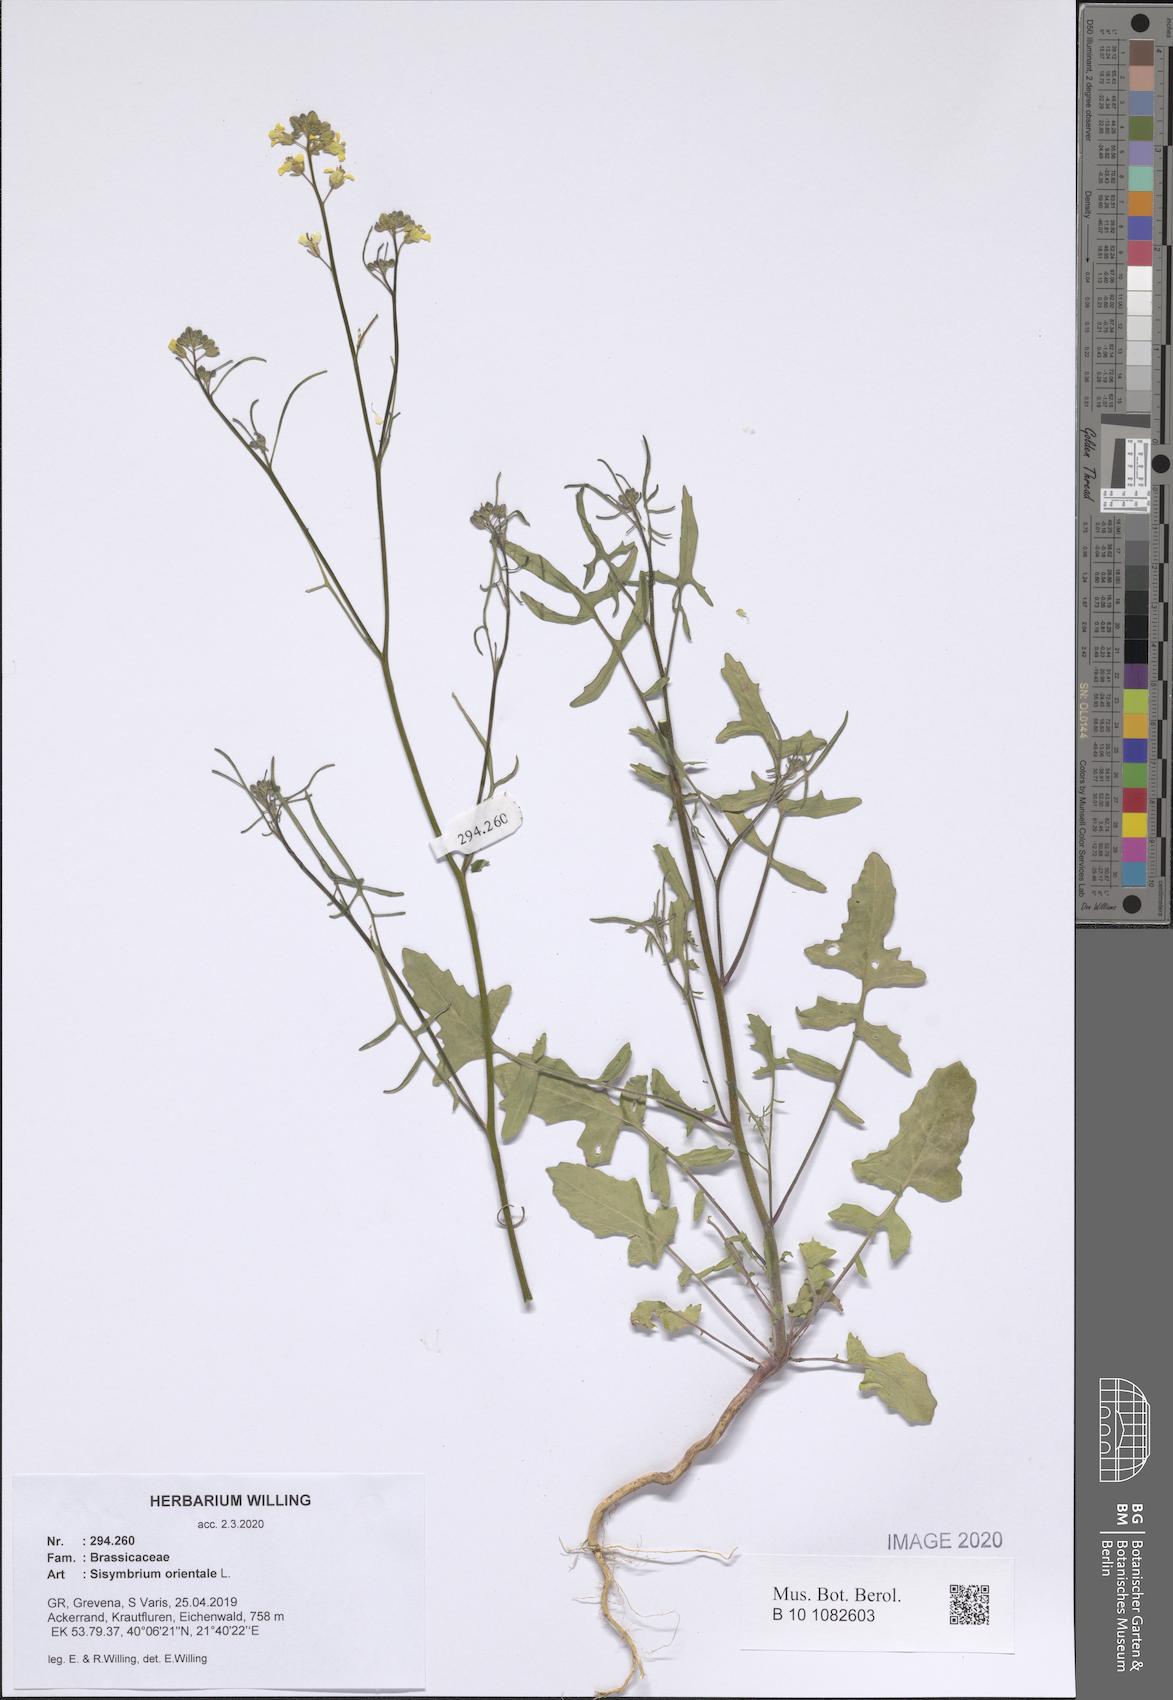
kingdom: Plantae
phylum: Tracheophyta
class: Magnoliopsida
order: Brassicales
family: Brassicaceae
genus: Sisymbrium
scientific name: Sisymbrium orientale
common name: Eastern rocket
